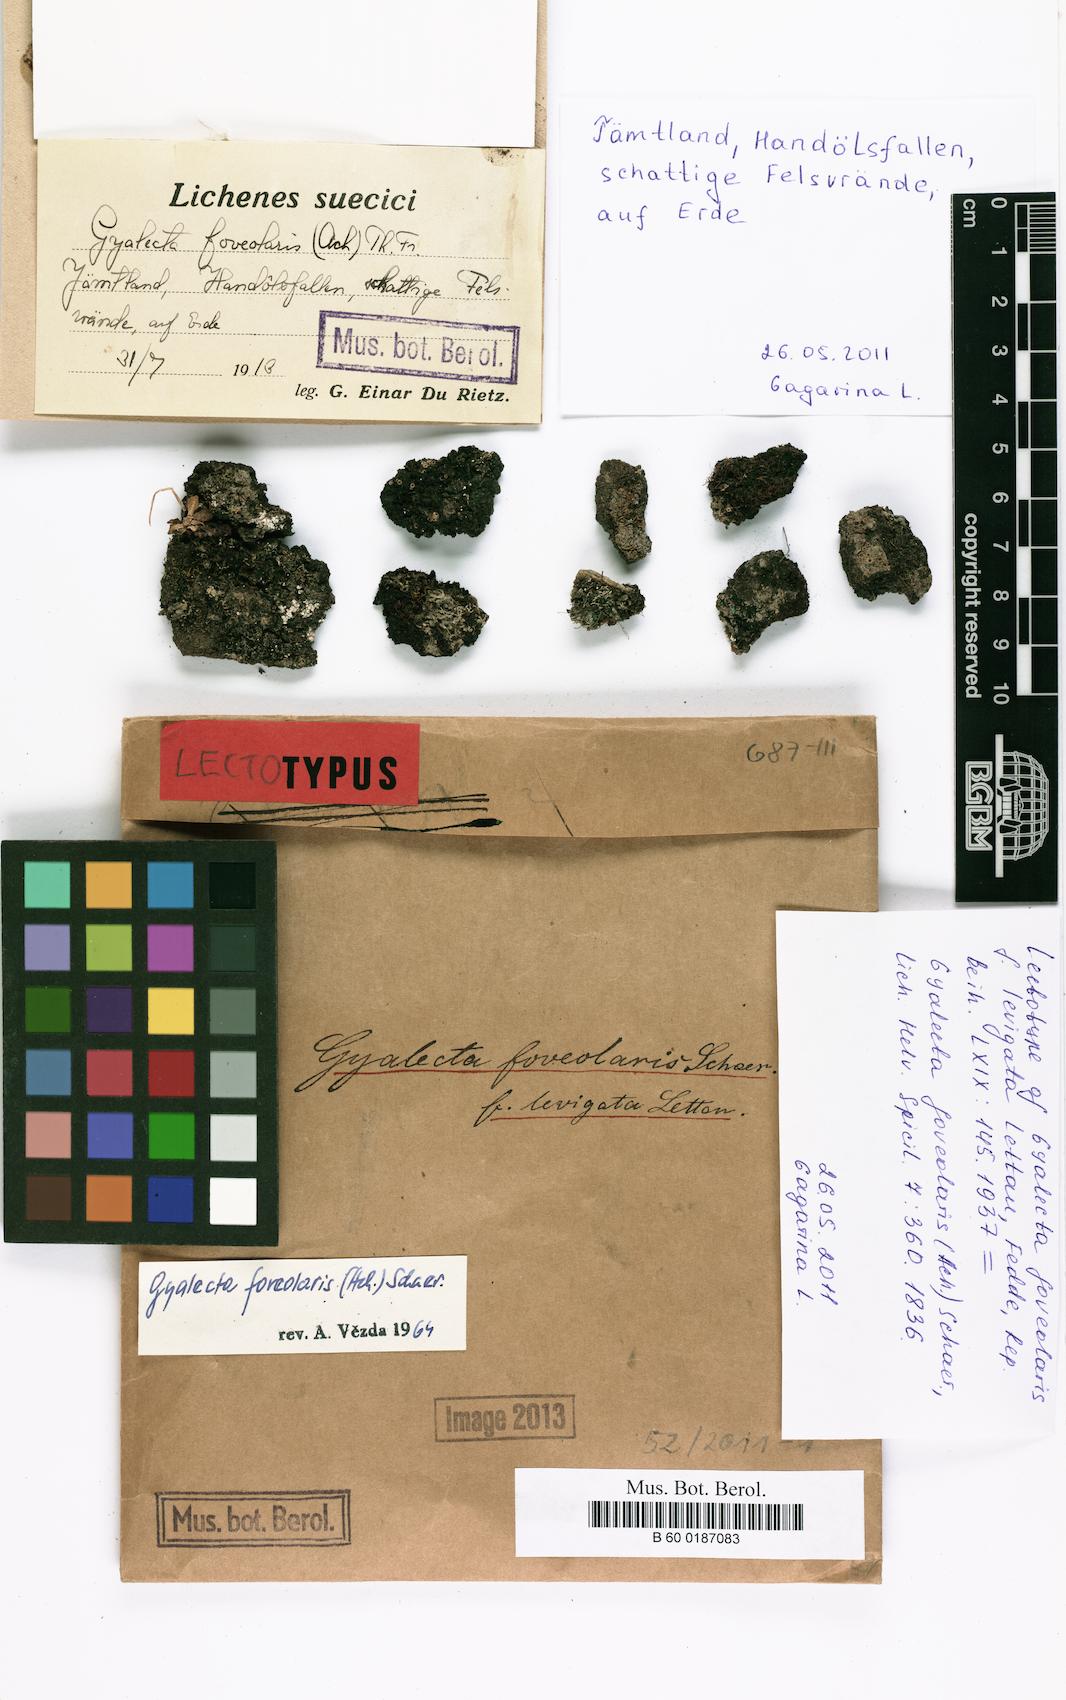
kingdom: Fungi
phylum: Ascomycota
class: Lecanoromycetes
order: Gyalectales
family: Gyalectaceae
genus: Gyalecta
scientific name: Gyalecta foveolaris
